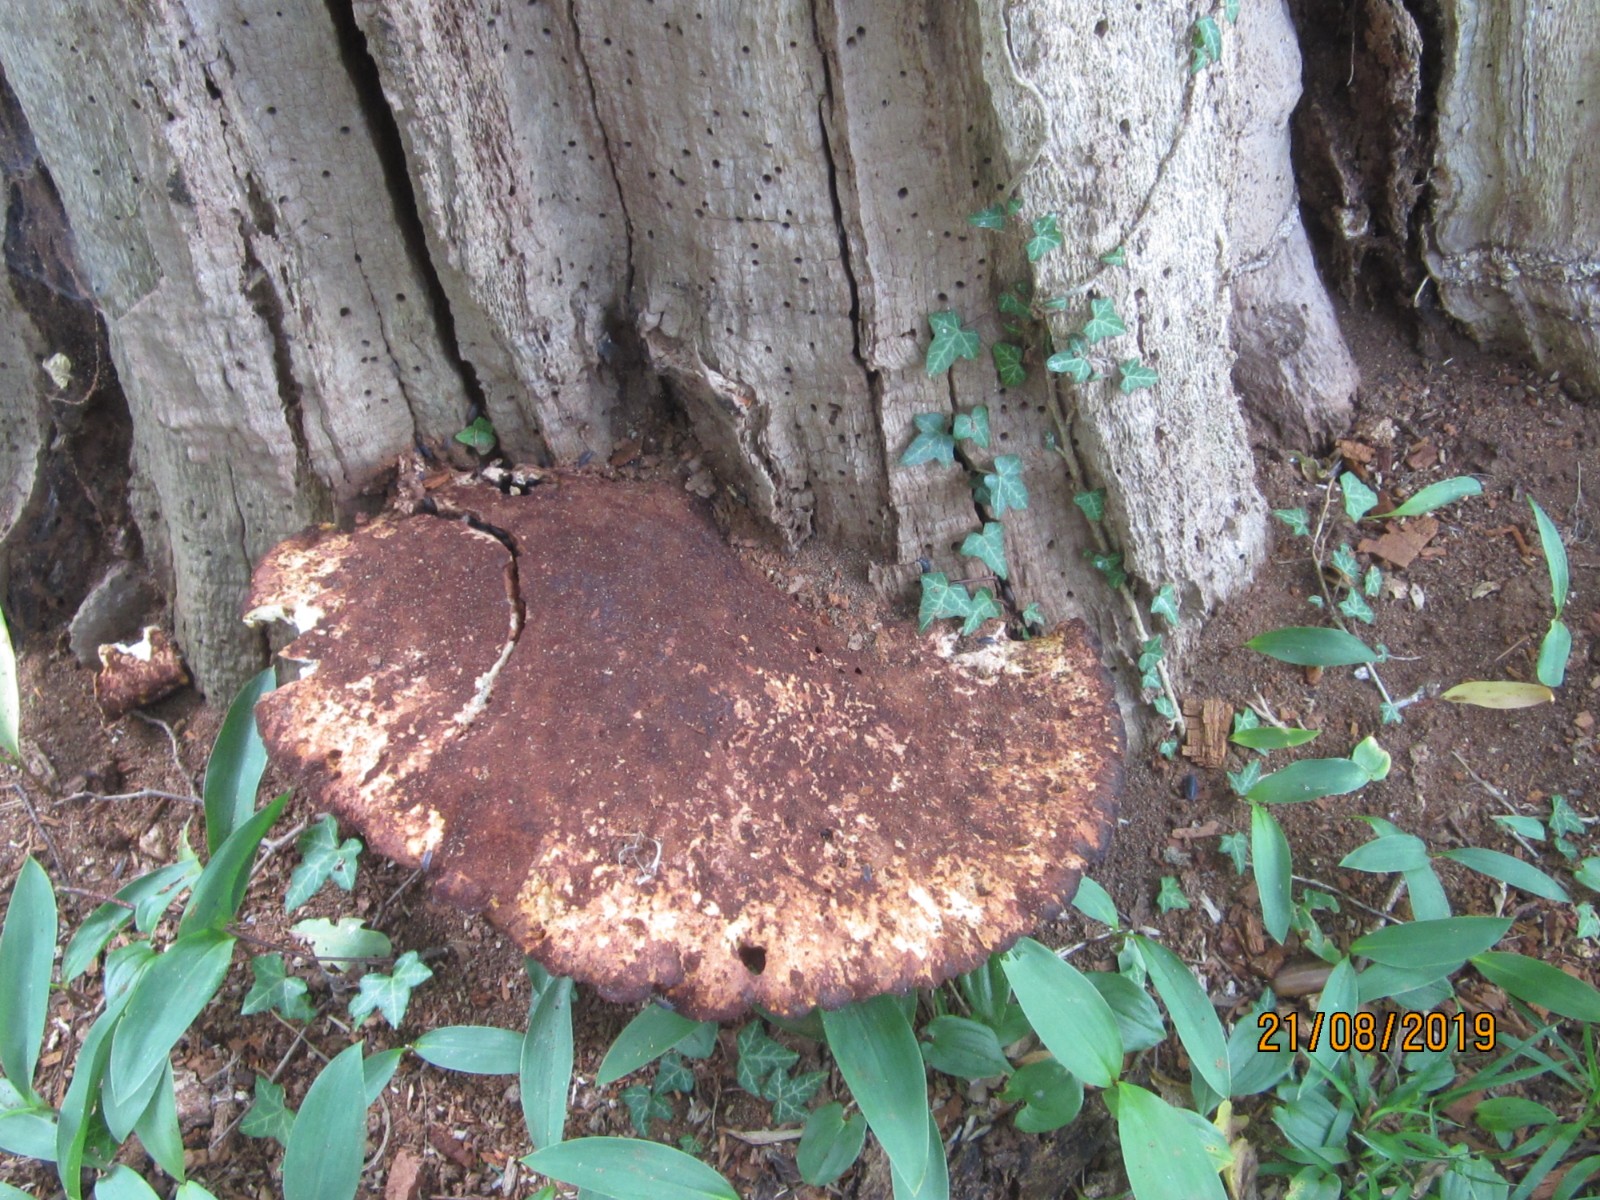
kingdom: Fungi
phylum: Basidiomycota
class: Agaricomycetes
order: Polyporales
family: Fomitopsidaceae
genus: Buglossoporus
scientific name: Buglossoporus quercinus
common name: egetunge
